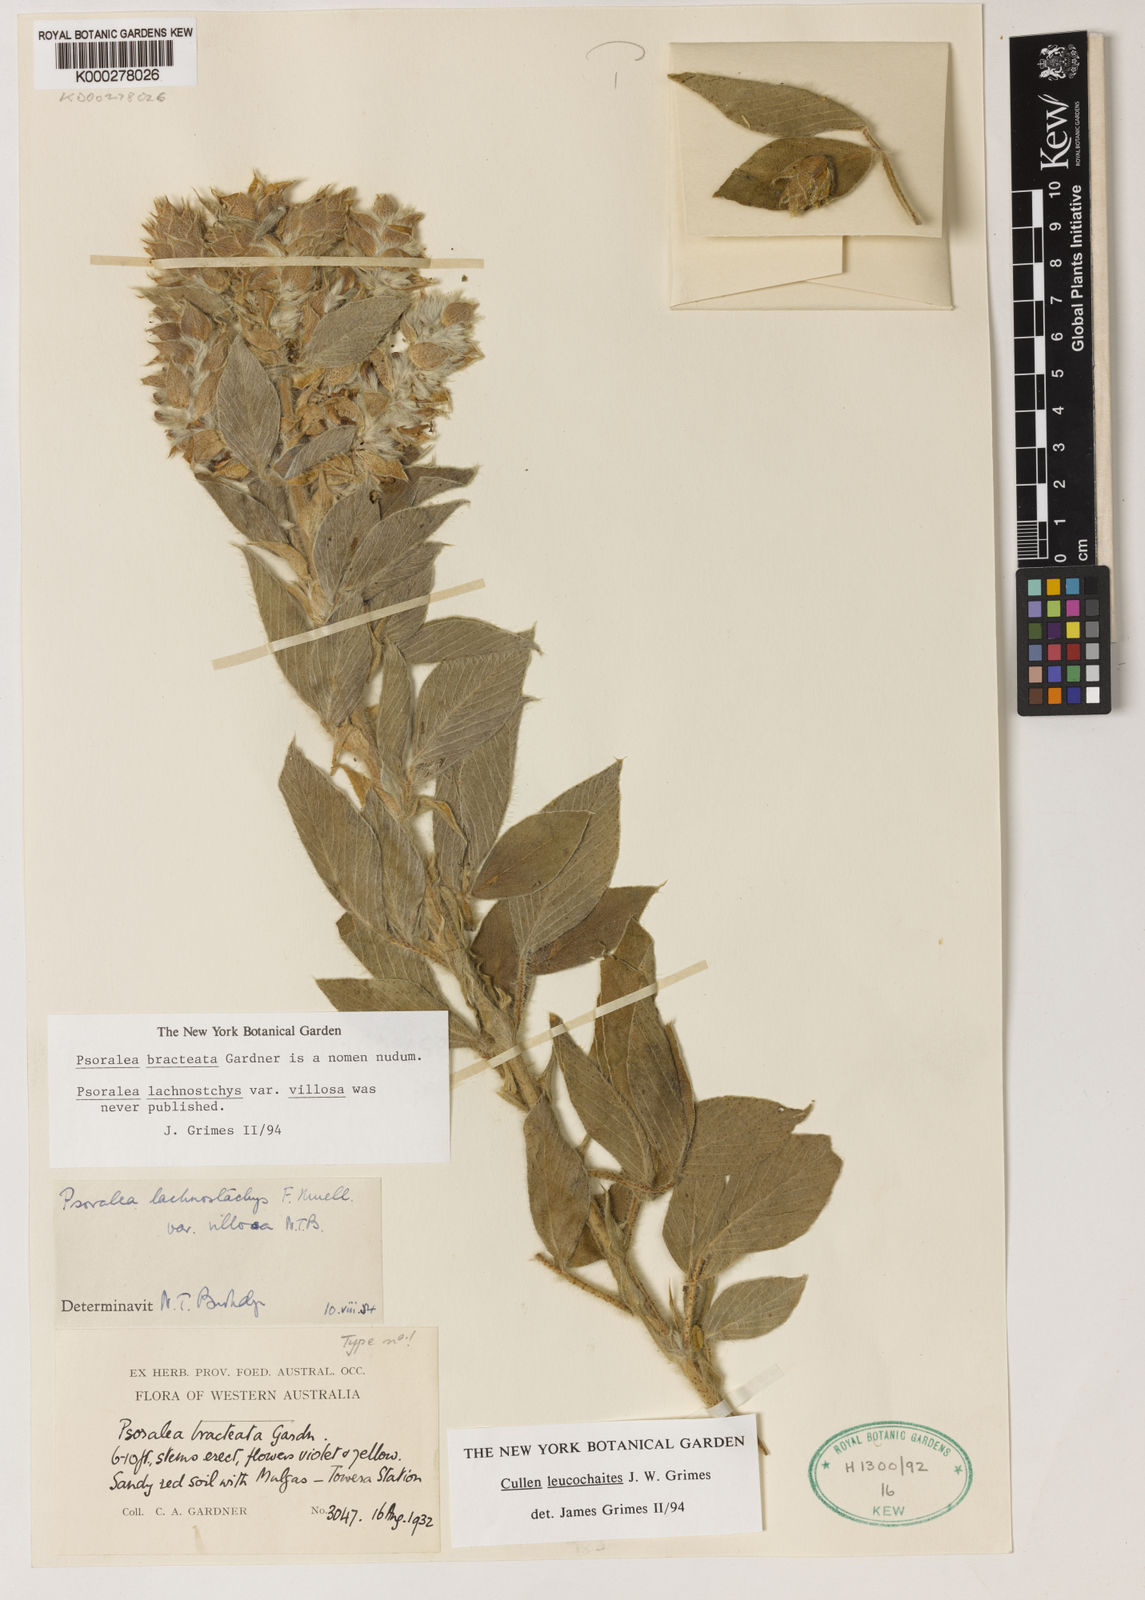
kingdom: Plantae
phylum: Tracheophyta
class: Magnoliopsida
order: Fabales
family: Fabaceae
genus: Cullen
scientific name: Cullen leucochaites
